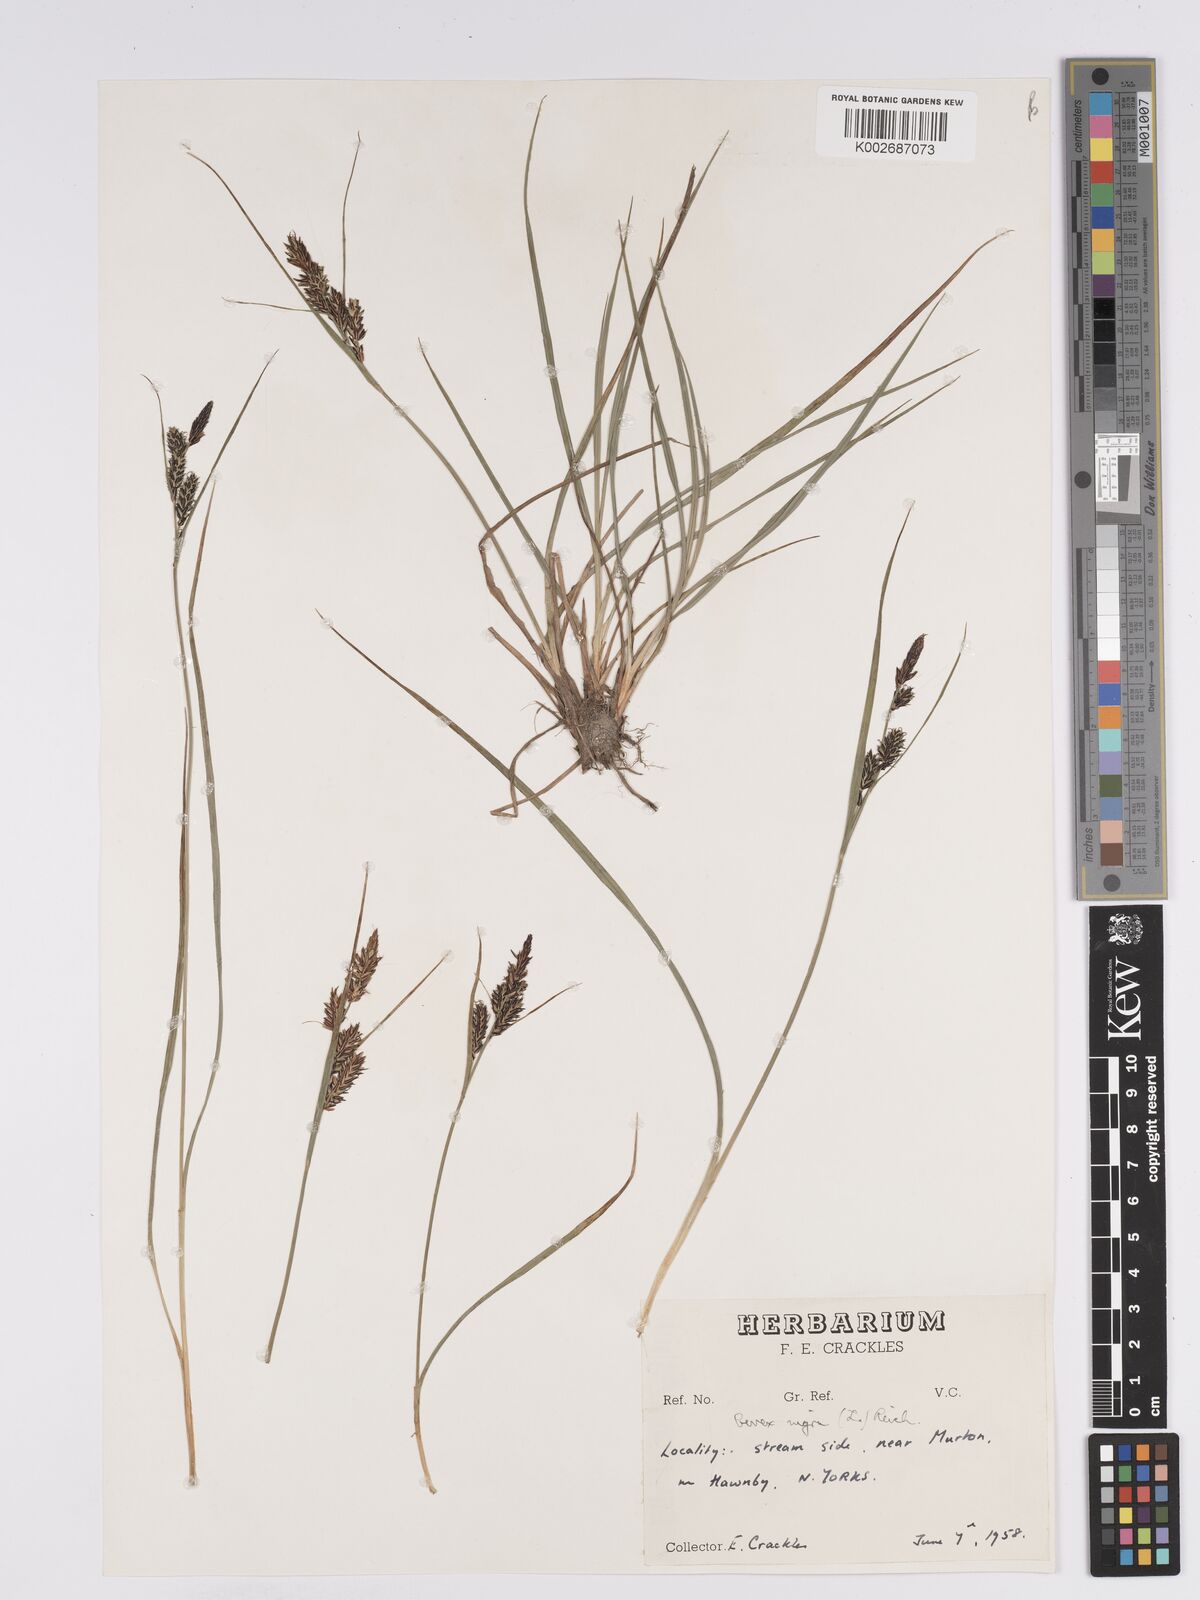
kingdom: Plantae
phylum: Tracheophyta
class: Liliopsida
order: Poales
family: Cyperaceae
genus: Carex
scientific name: Carex nigra
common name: Common sedge
